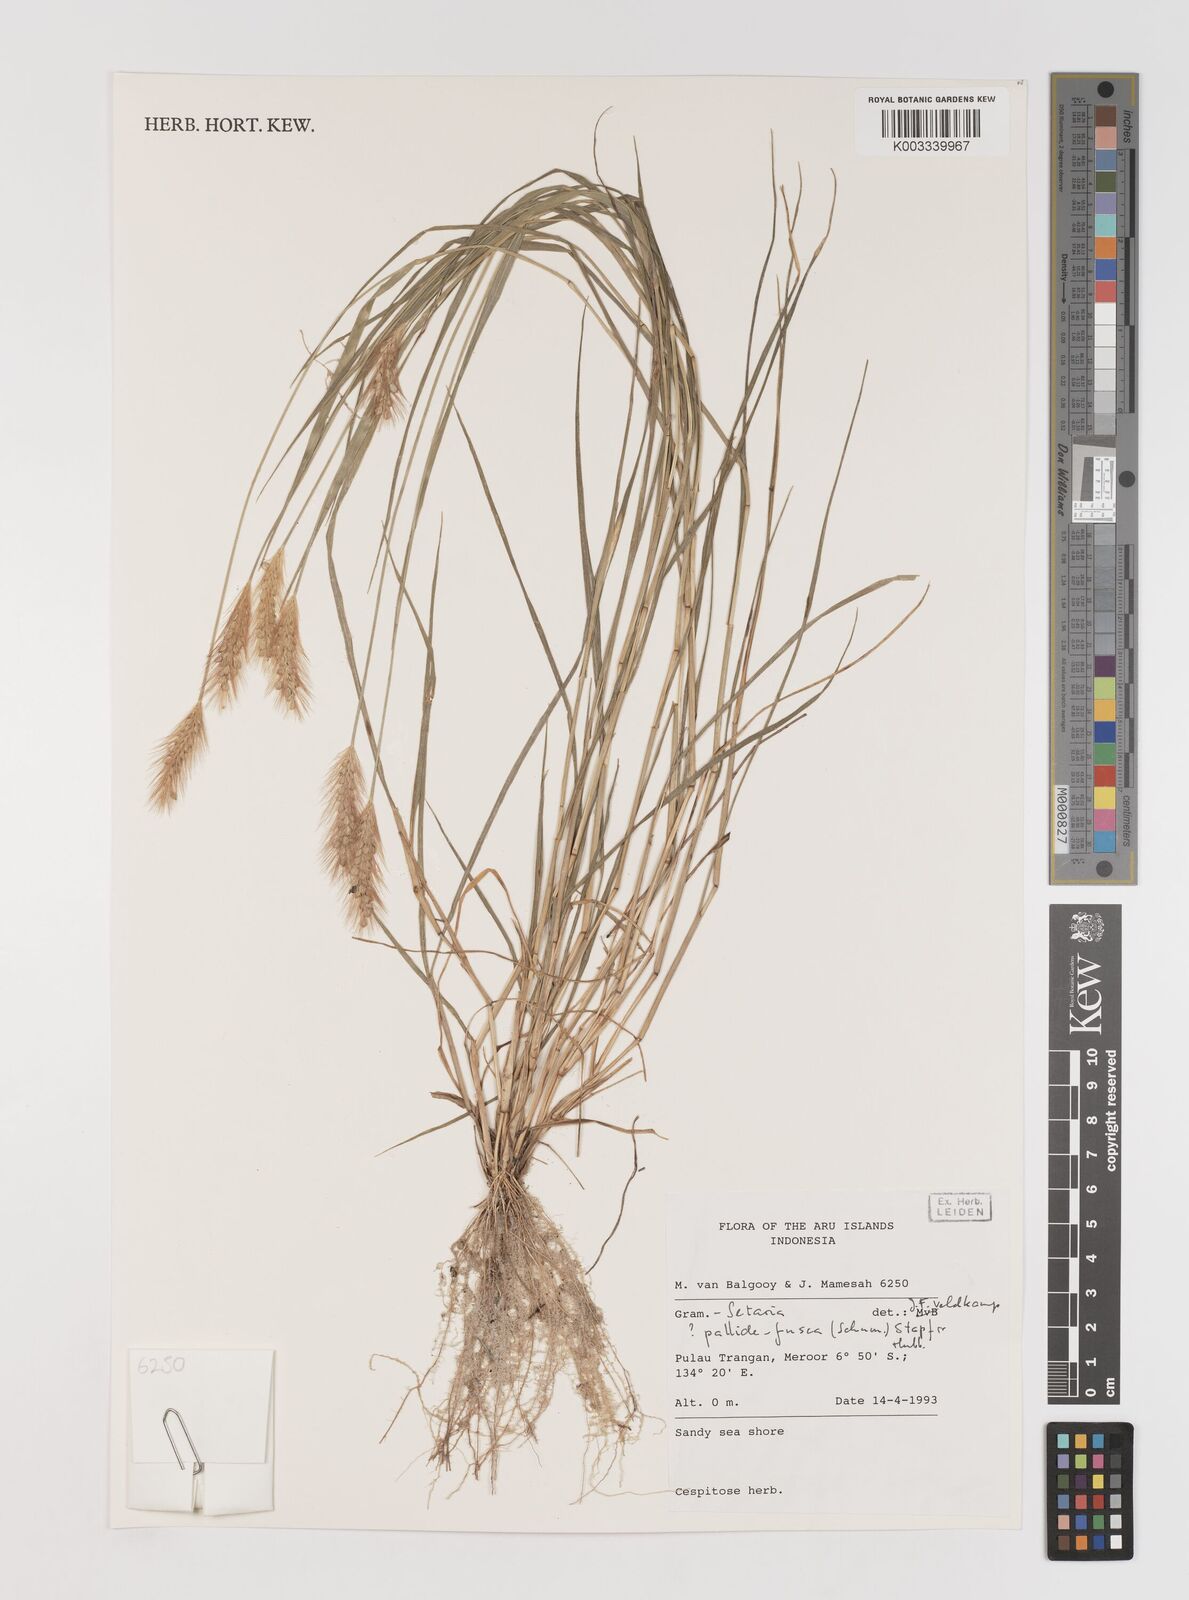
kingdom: Plantae
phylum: Tracheophyta
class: Liliopsida
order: Poales
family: Poaceae
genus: Setaria
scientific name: Setaria parviflora
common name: Knotroot bristle-grass
